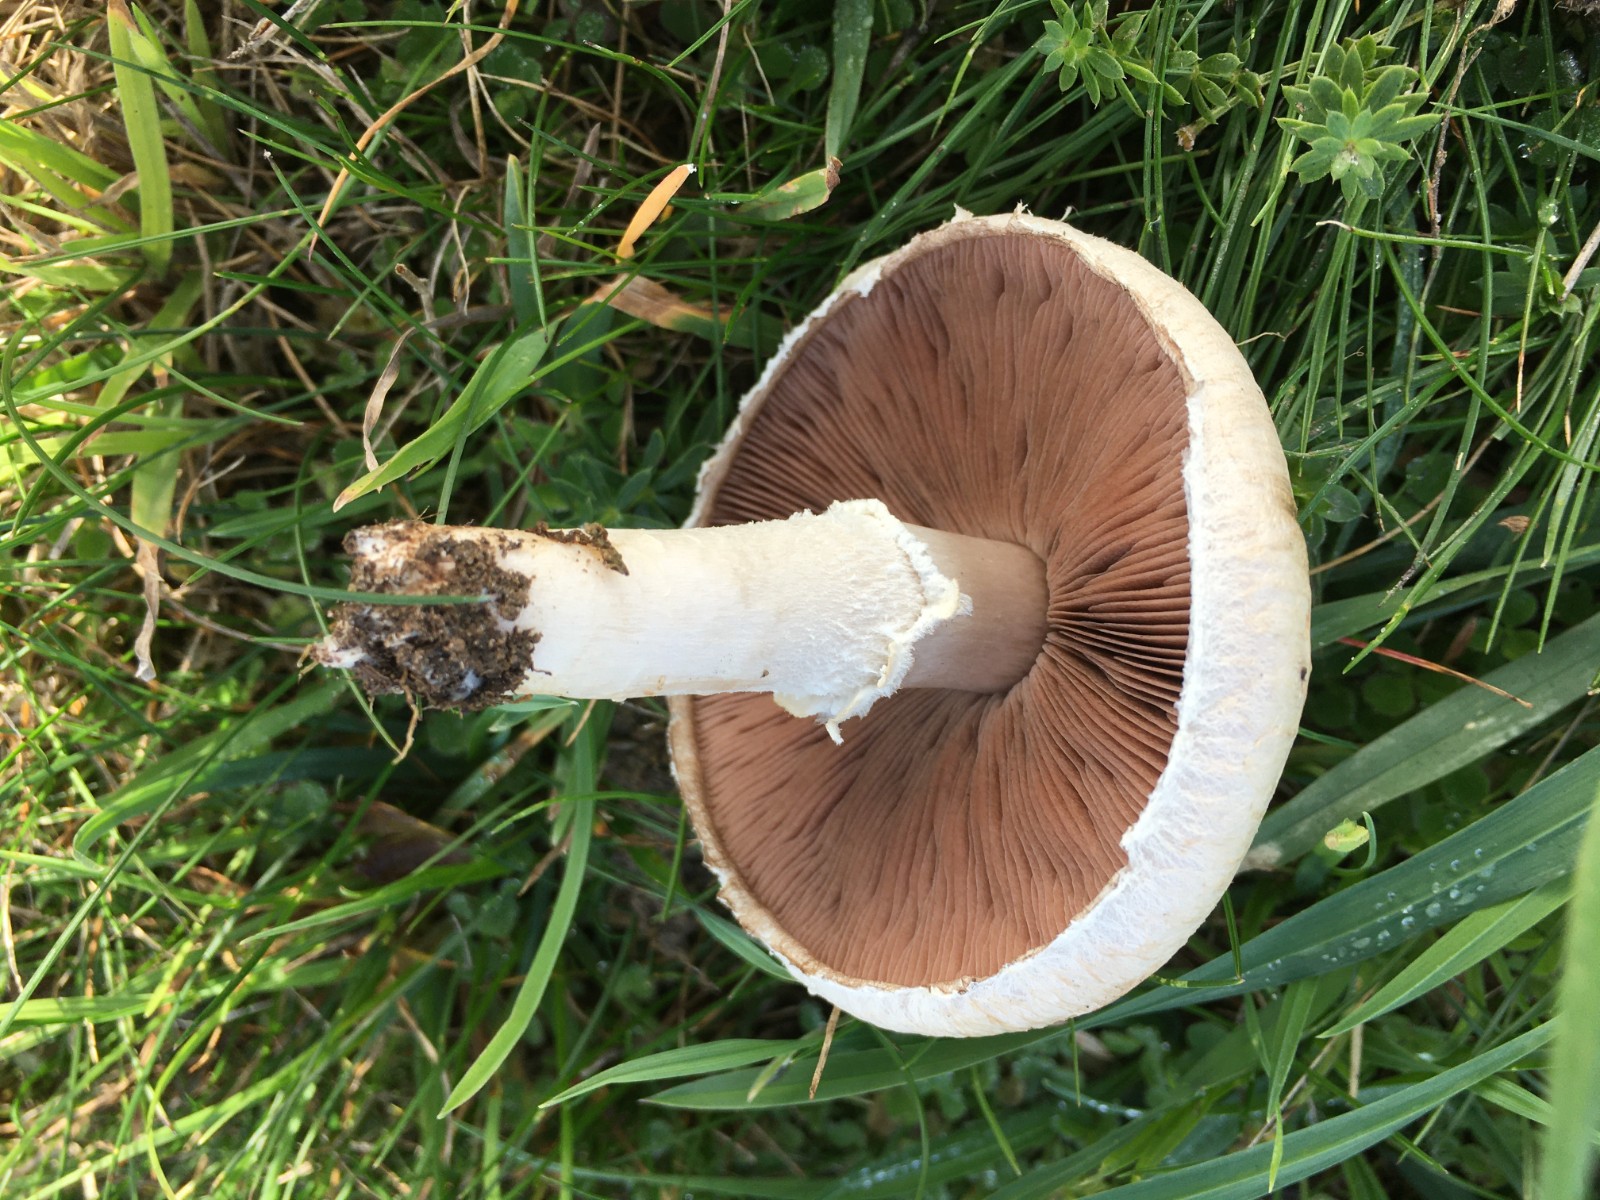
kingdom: Fungi
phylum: Basidiomycota
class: Agaricomycetes
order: Agaricales
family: Agaricaceae
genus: Agaricus
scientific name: Agaricus campestris
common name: mark-champignon
